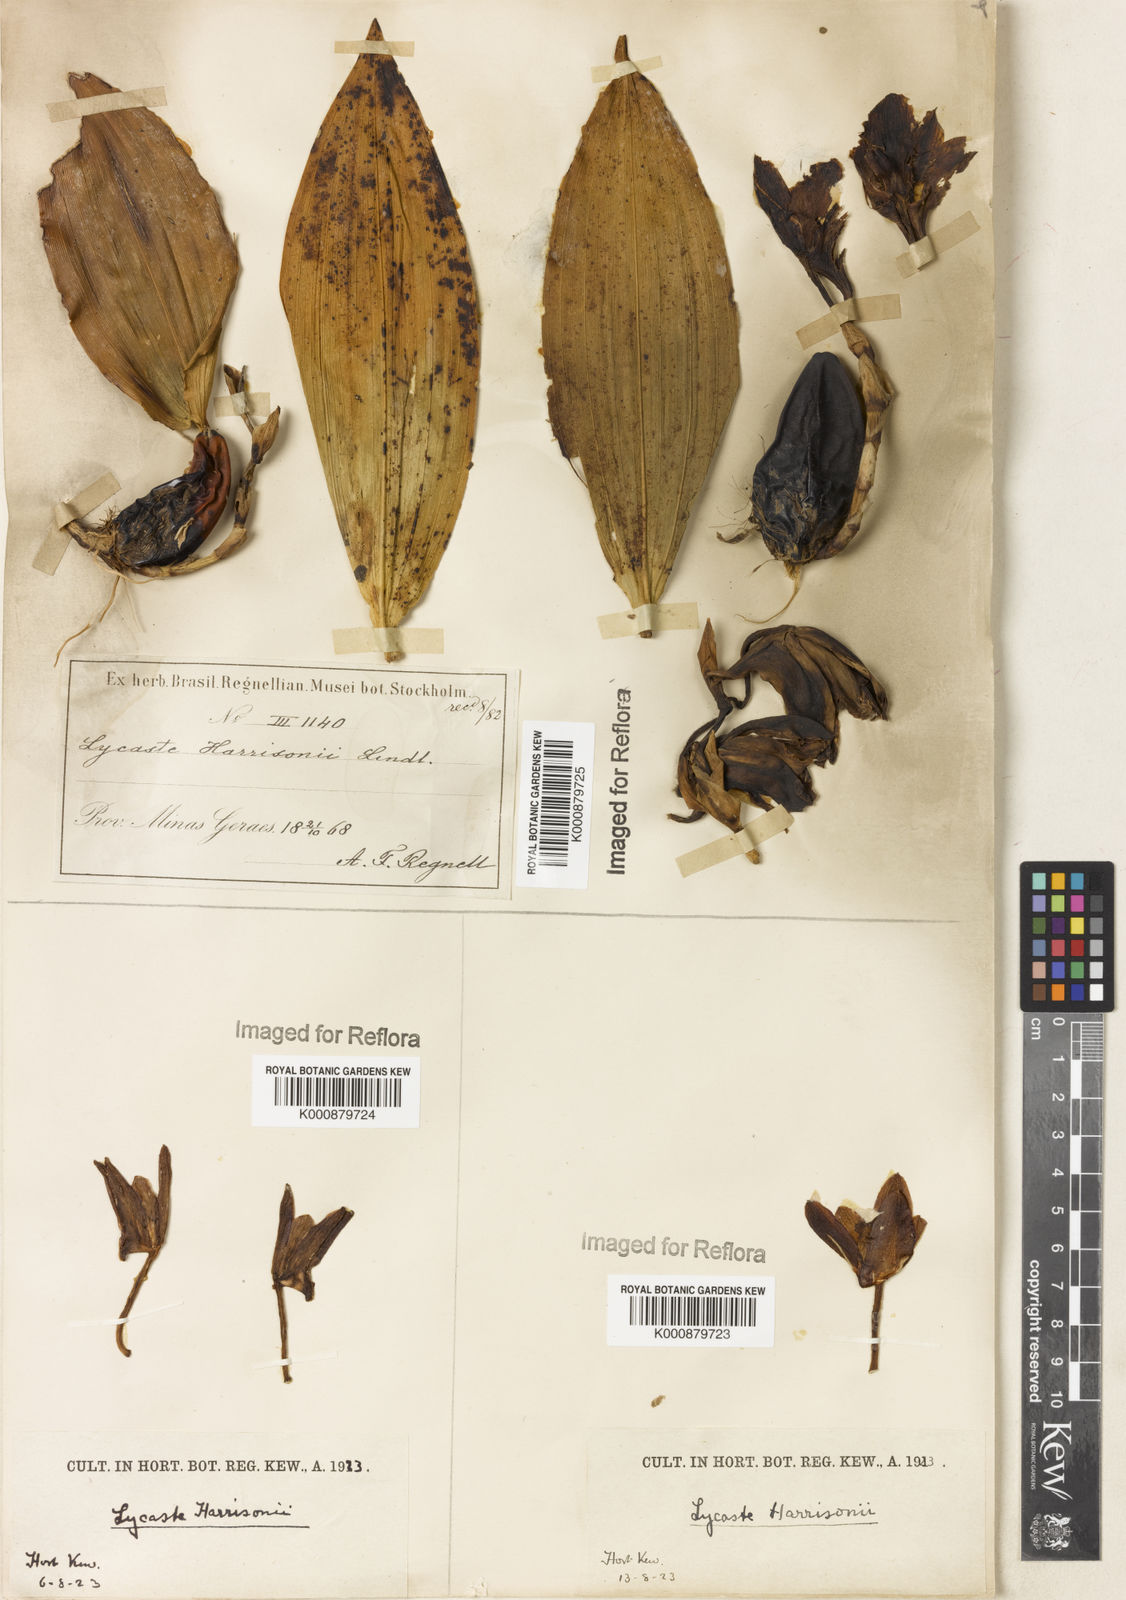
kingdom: Plantae
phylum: Tracheophyta
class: Liliopsida
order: Asparagales
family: Orchidaceae
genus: Bifrenaria
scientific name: Bifrenaria harrisoniae
